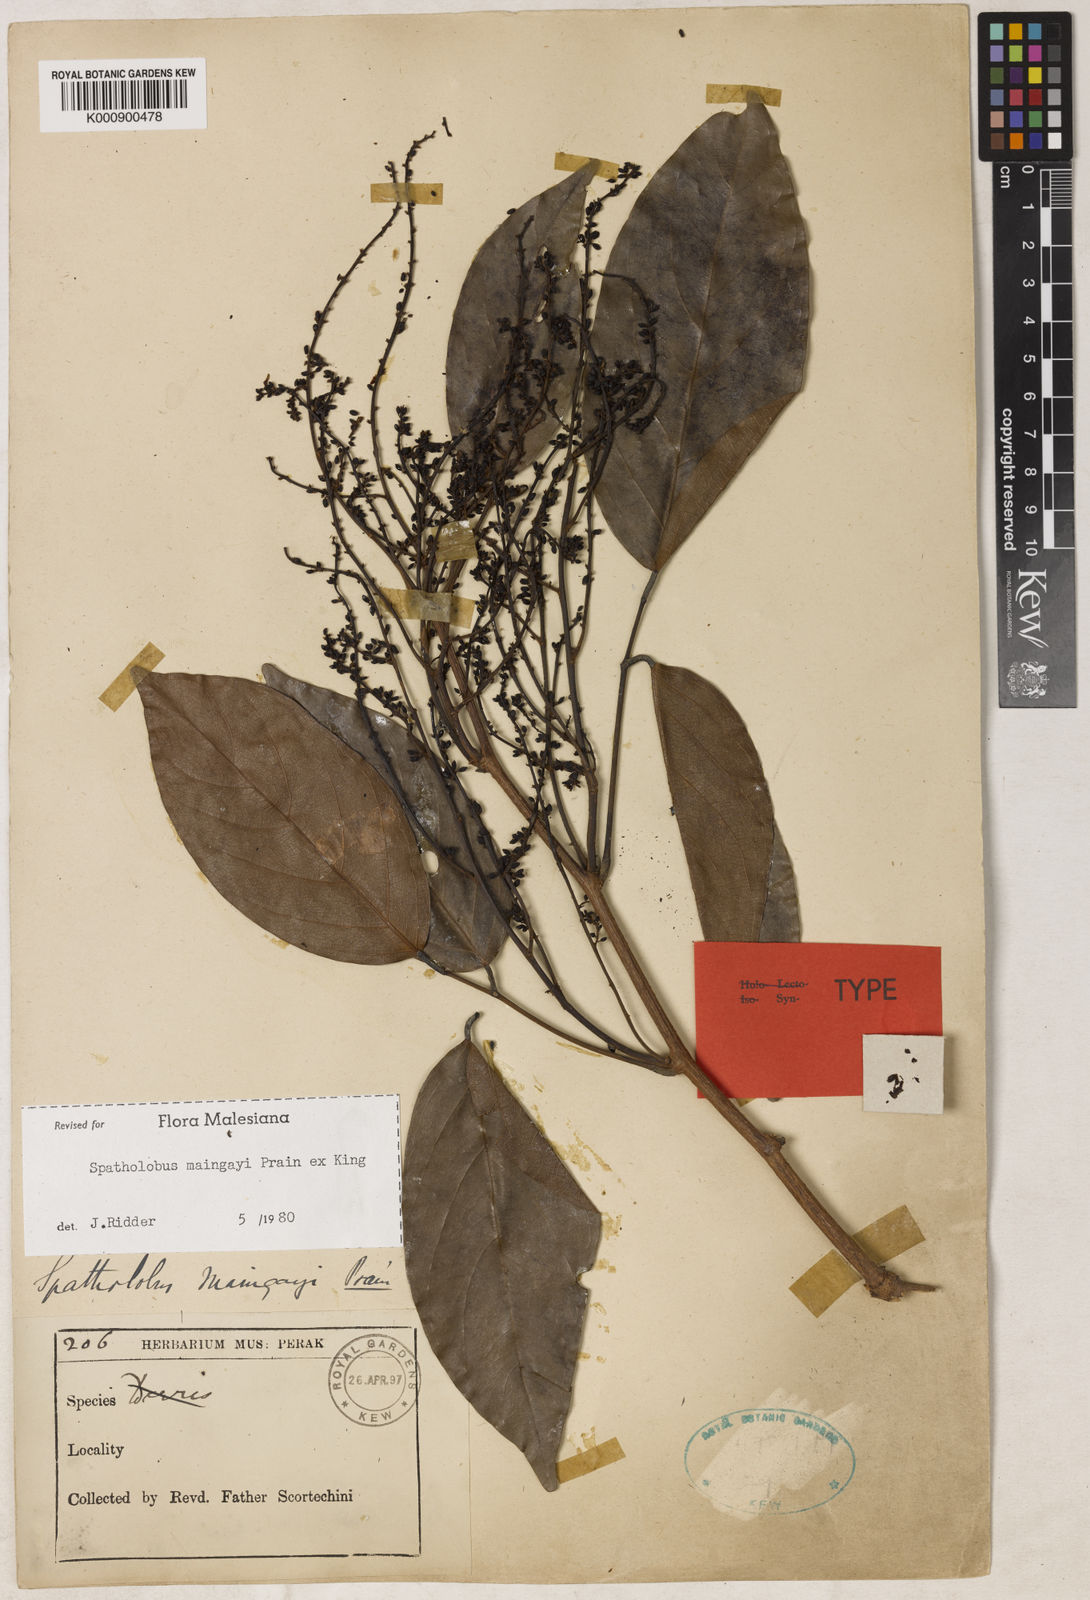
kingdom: Plantae
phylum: Tracheophyta
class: Magnoliopsida
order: Fabales
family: Fabaceae
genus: Spatholobus
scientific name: Spatholobus
